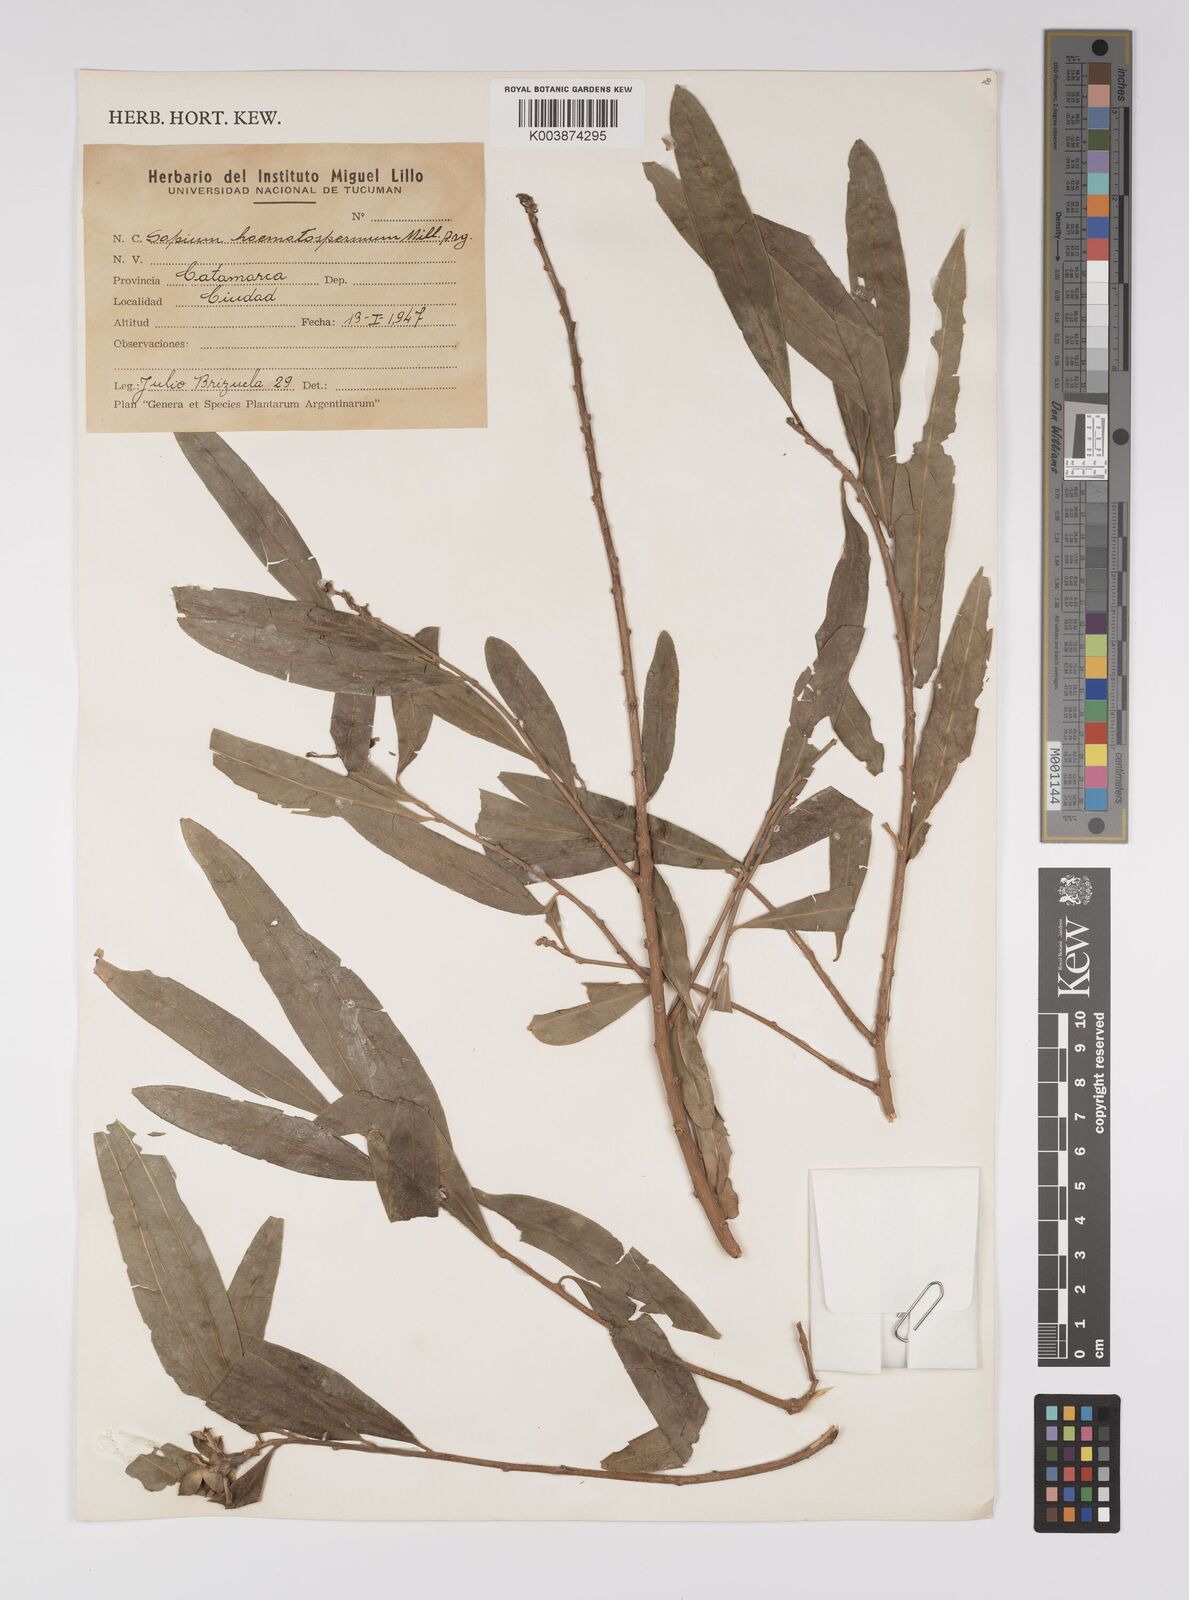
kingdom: Plantae
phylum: Tracheophyta
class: Magnoliopsida
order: Malpighiales
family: Euphorbiaceae
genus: Sapium
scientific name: Sapium haematospermum
